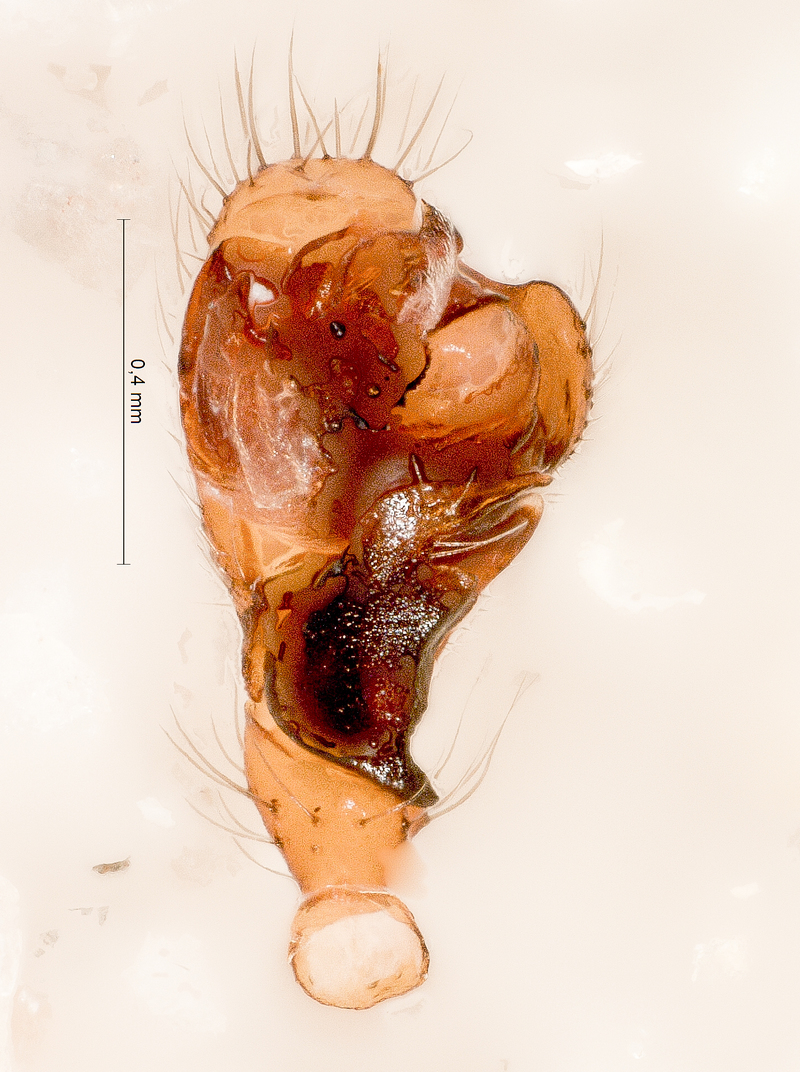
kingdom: Animalia
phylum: Arthropoda
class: Arachnida
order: Araneae
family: Linyphiidae
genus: Saaristoa
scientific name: Saaristoa abnormis
